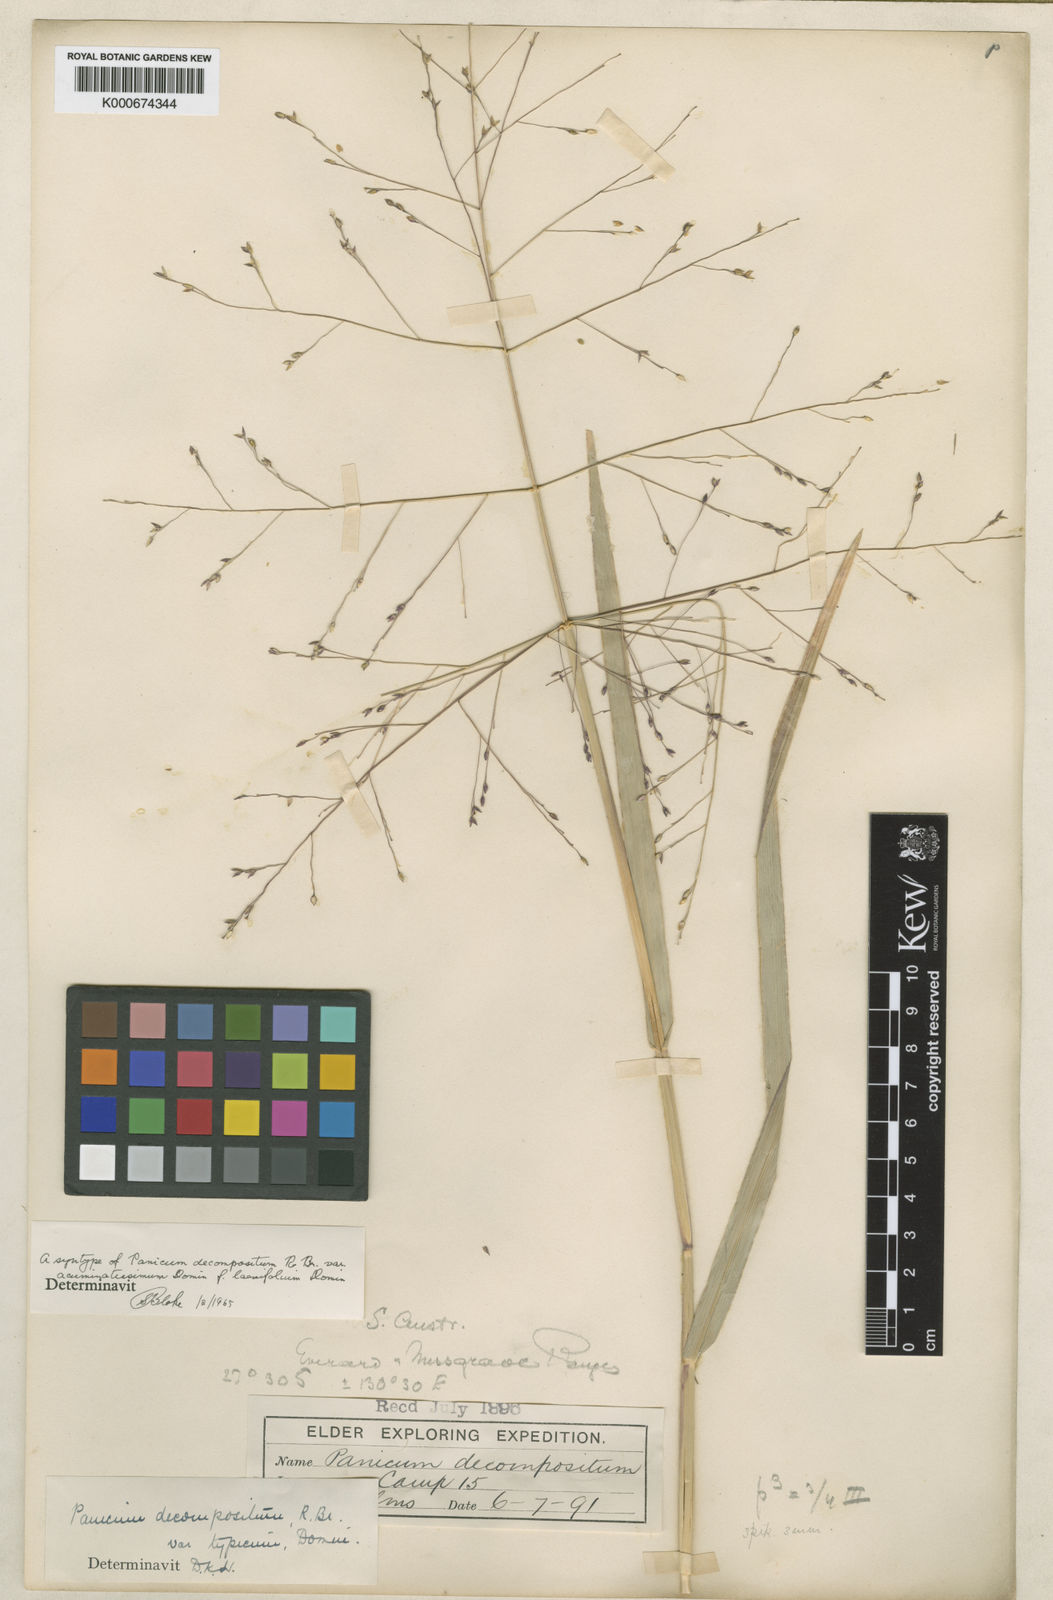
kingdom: Plantae
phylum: Tracheophyta
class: Liliopsida
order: Poales
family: Poaceae
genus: Panicum
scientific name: Panicum decompositum
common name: Australian millet
